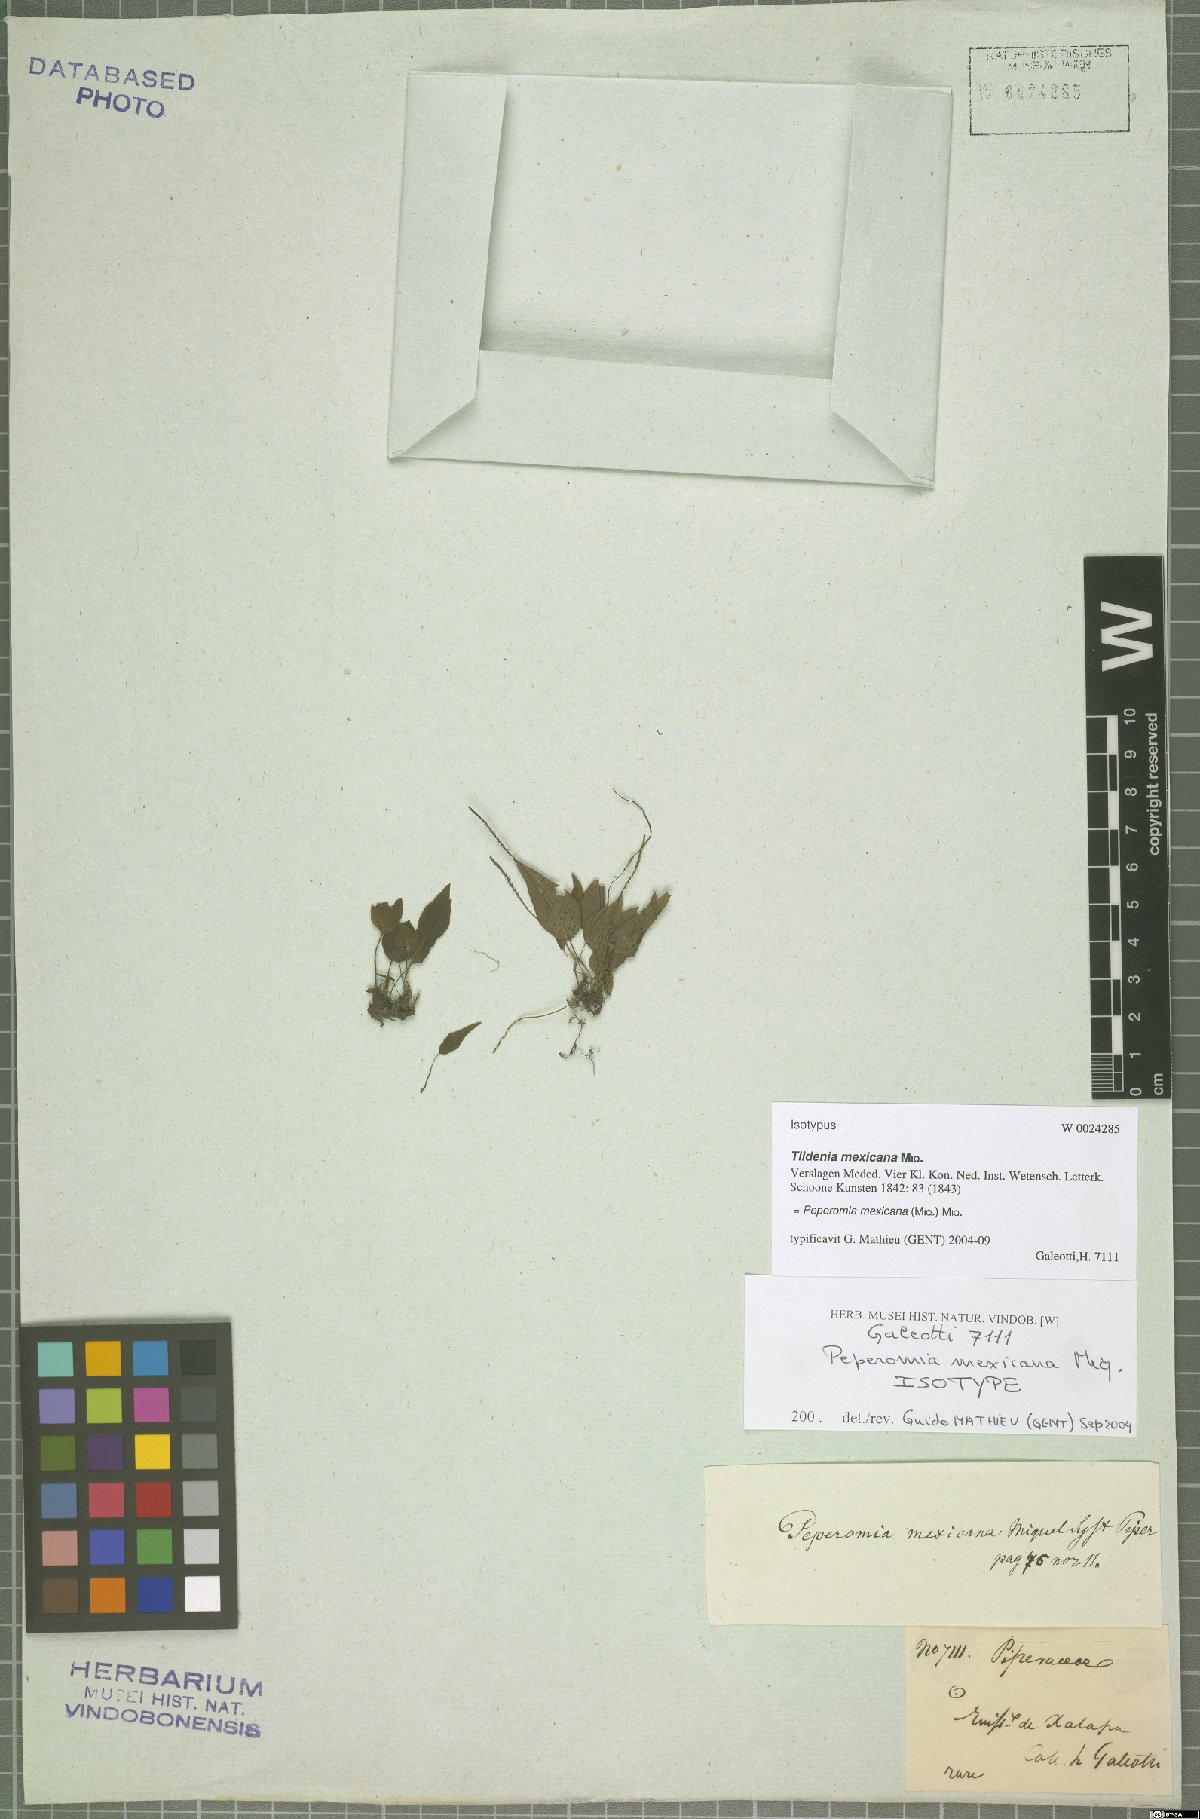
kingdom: Plantae
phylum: Tracheophyta
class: Magnoliopsida
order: Piperales
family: Piperaceae
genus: Peperomia
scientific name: Peperomia mexicana
